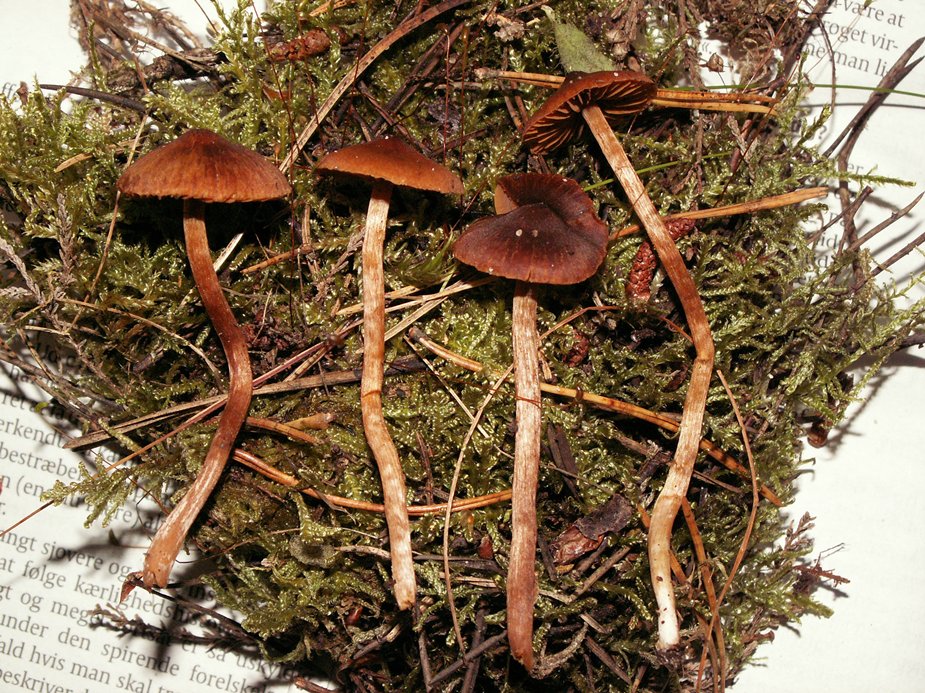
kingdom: Fungi
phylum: Basidiomycota
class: Agaricomycetes
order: Agaricales
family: Cortinariaceae
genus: Cortinarius
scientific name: Cortinarius
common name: ræve-slørhat
